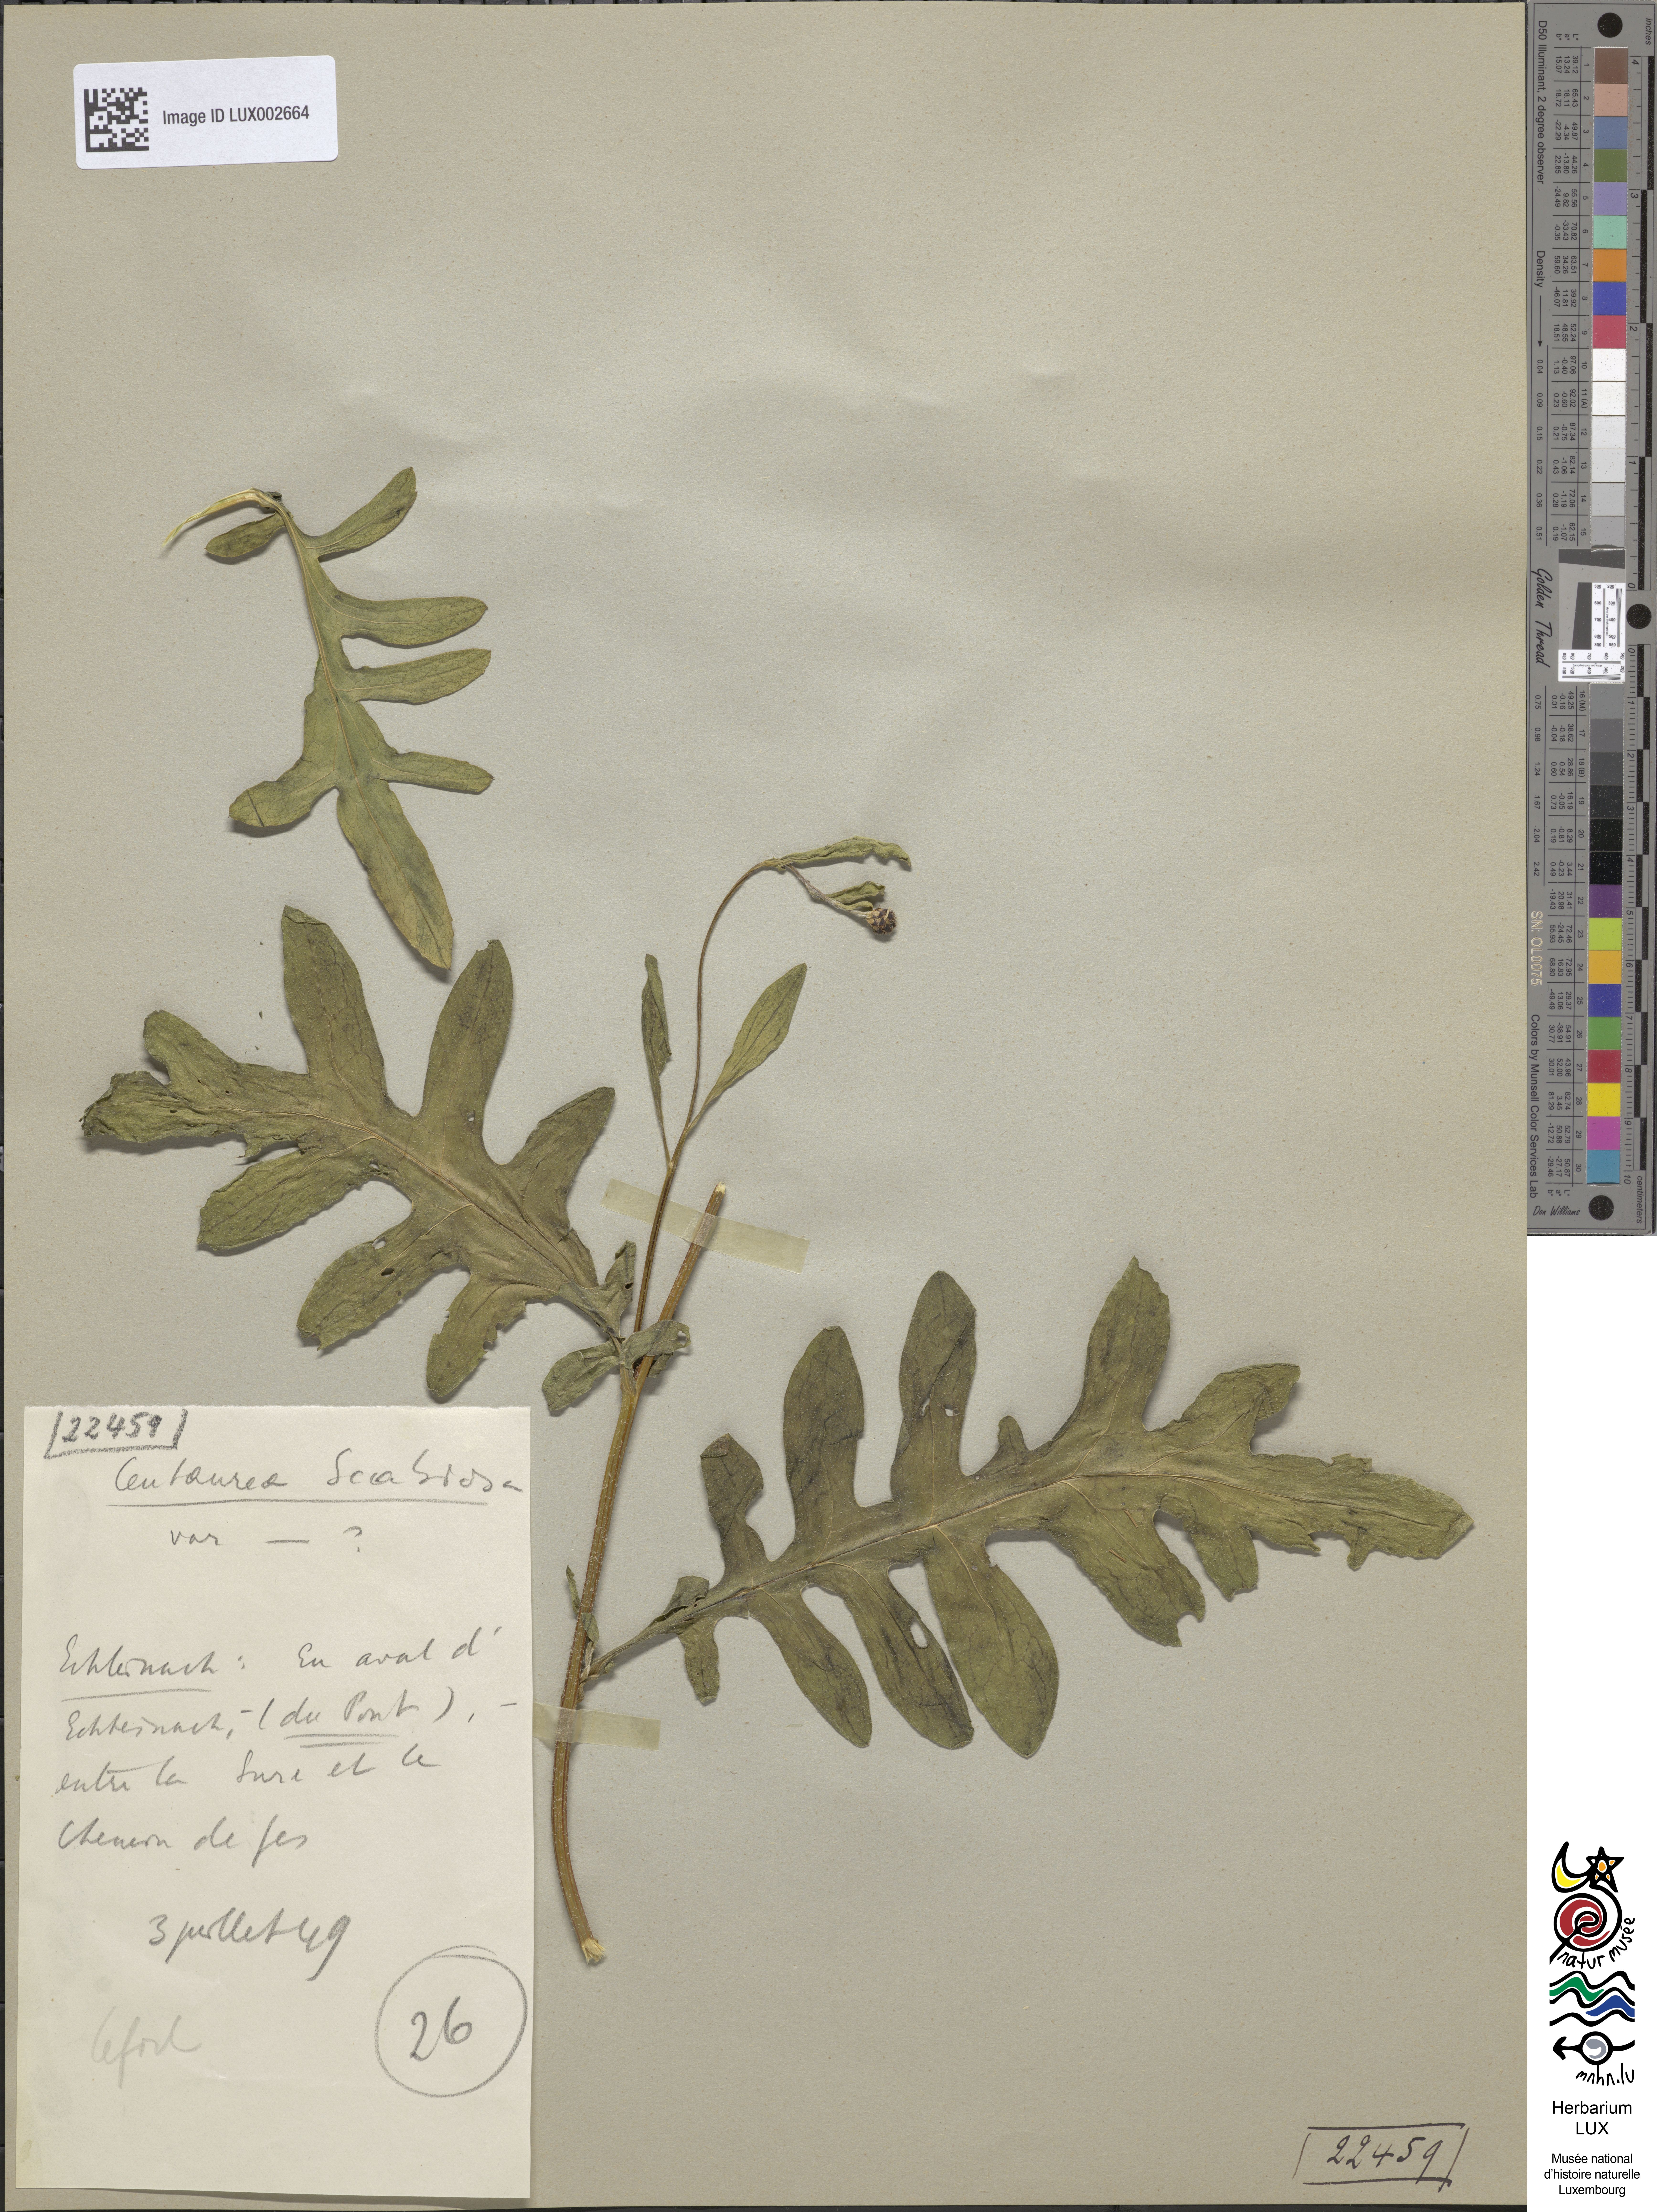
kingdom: Plantae
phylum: Tracheophyta
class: Magnoliopsida
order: Asterales
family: Asteraceae
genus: Centaurea
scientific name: Centaurea scabiosa
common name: Greater knapweed
